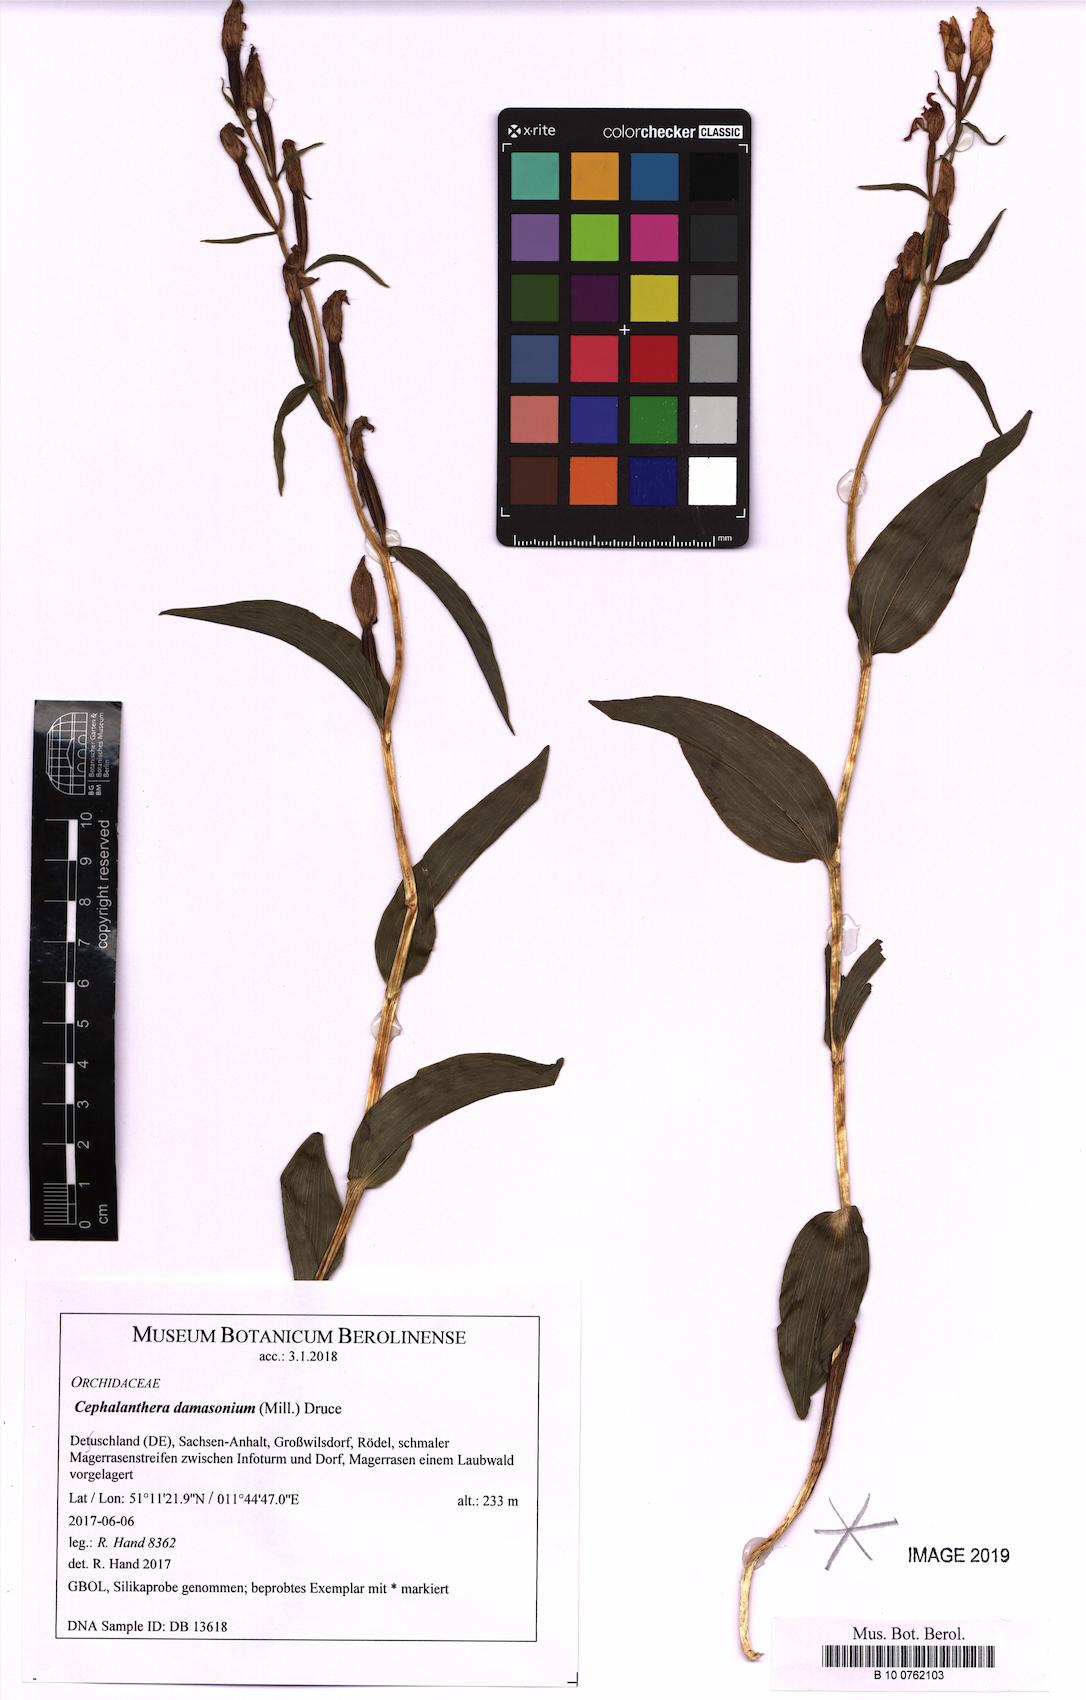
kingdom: Plantae
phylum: Tracheophyta
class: Liliopsida
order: Asparagales
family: Orchidaceae
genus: Cephalanthera
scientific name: Cephalanthera damasonium
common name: White helleborine
